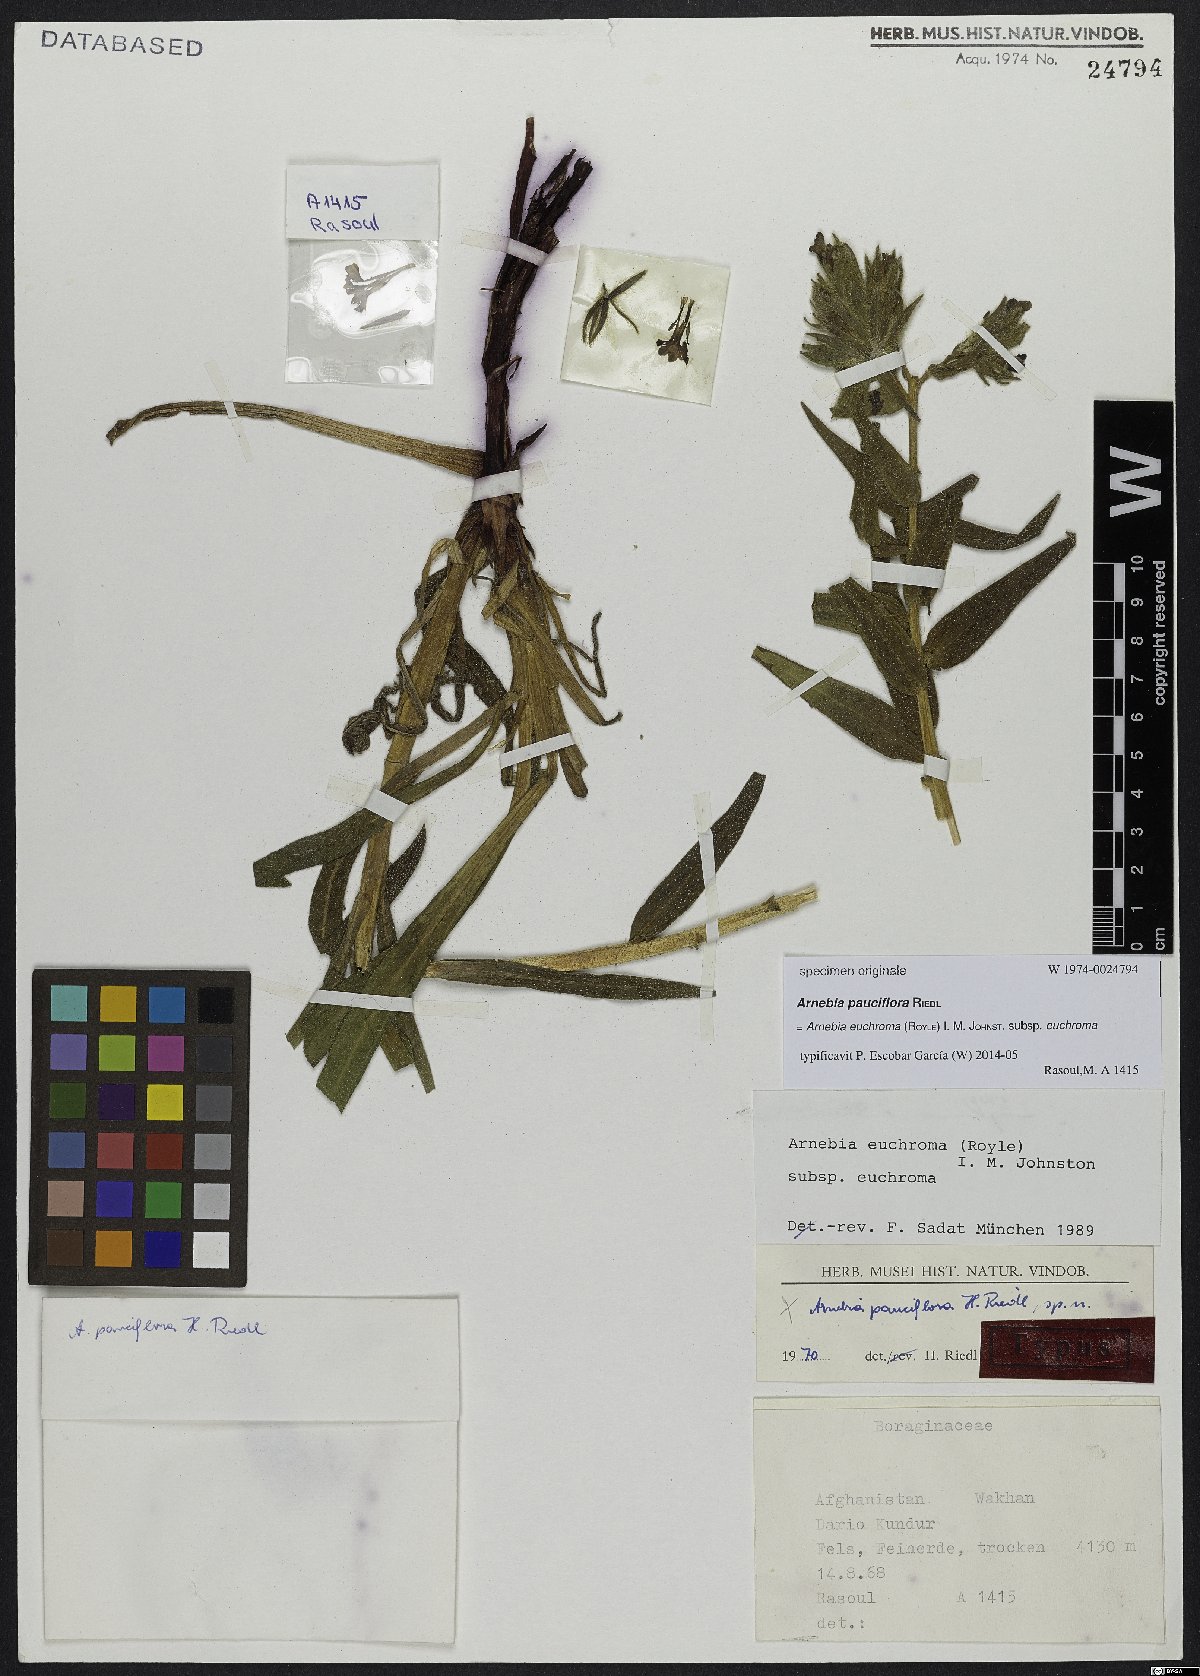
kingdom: Plantae
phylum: Tracheophyta
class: Magnoliopsida
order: Boraginales
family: Boraginaceae
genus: Arnebia
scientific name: Arnebia euchroma
